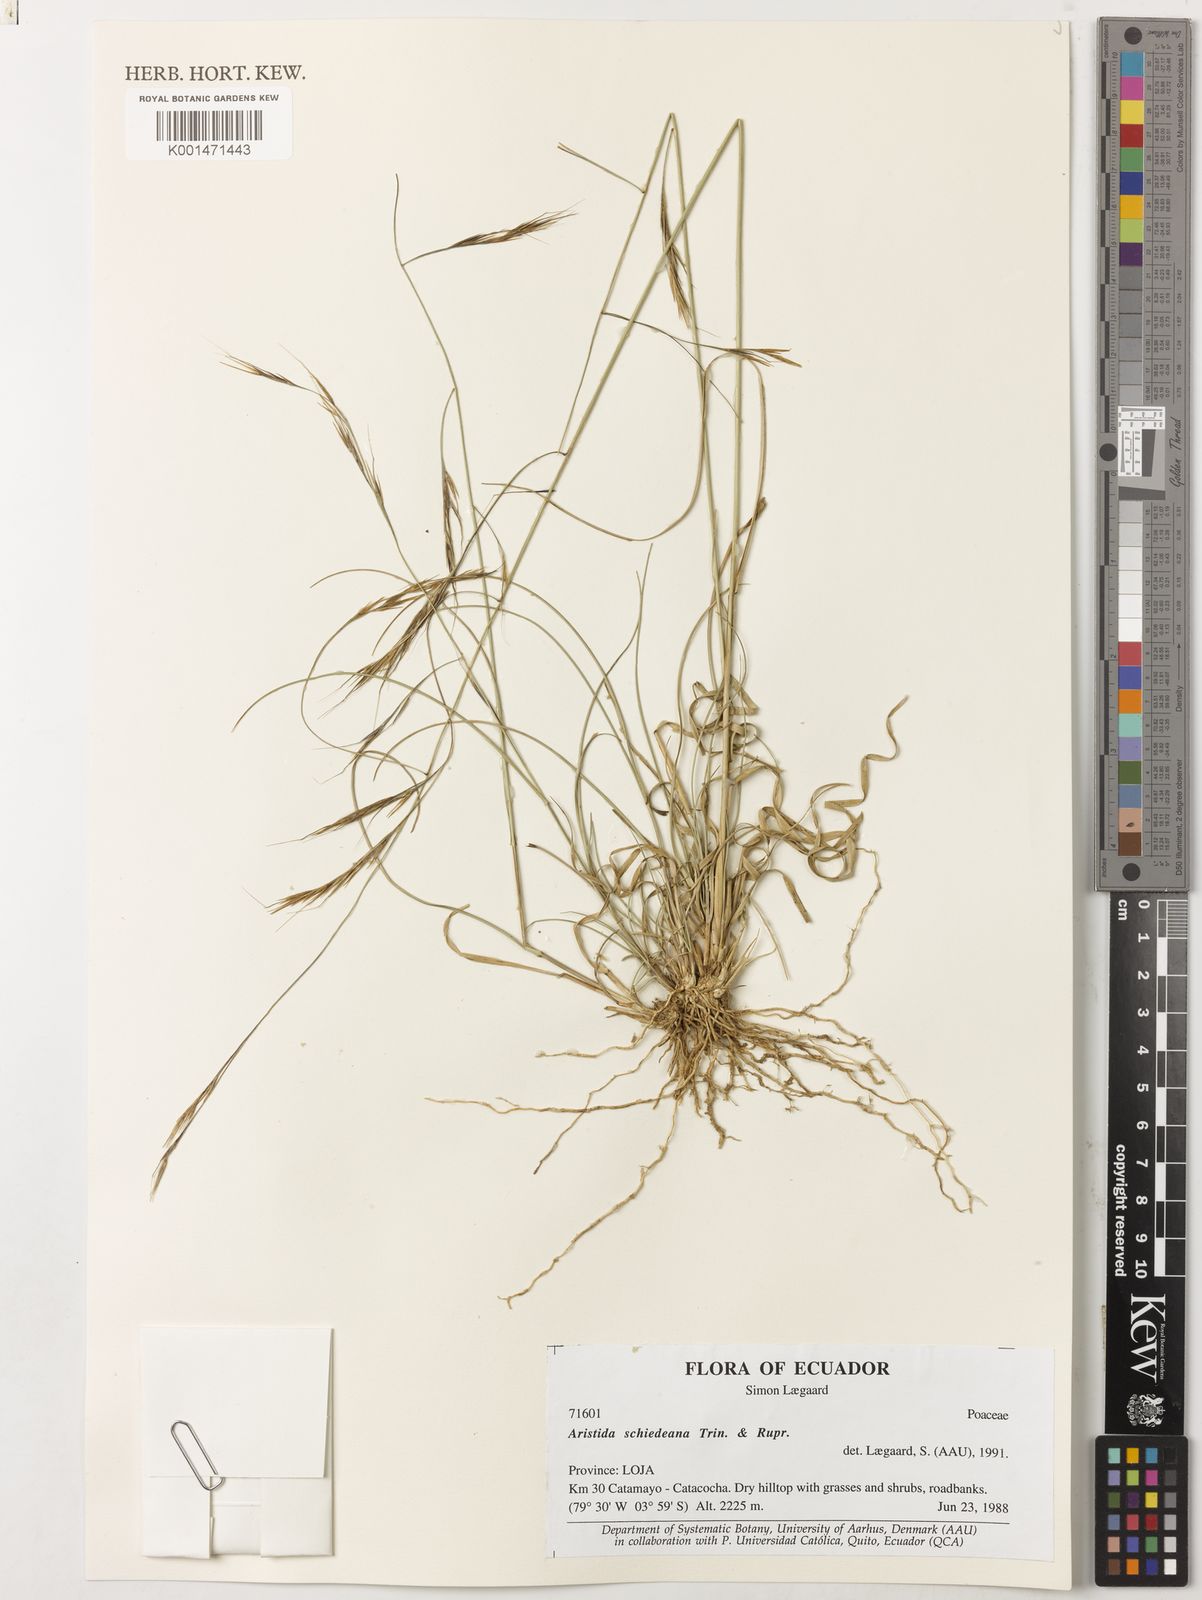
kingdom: Plantae
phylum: Tracheophyta
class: Liliopsida
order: Poales
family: Poaceae
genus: Aristida
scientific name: Aristida schiedeana
